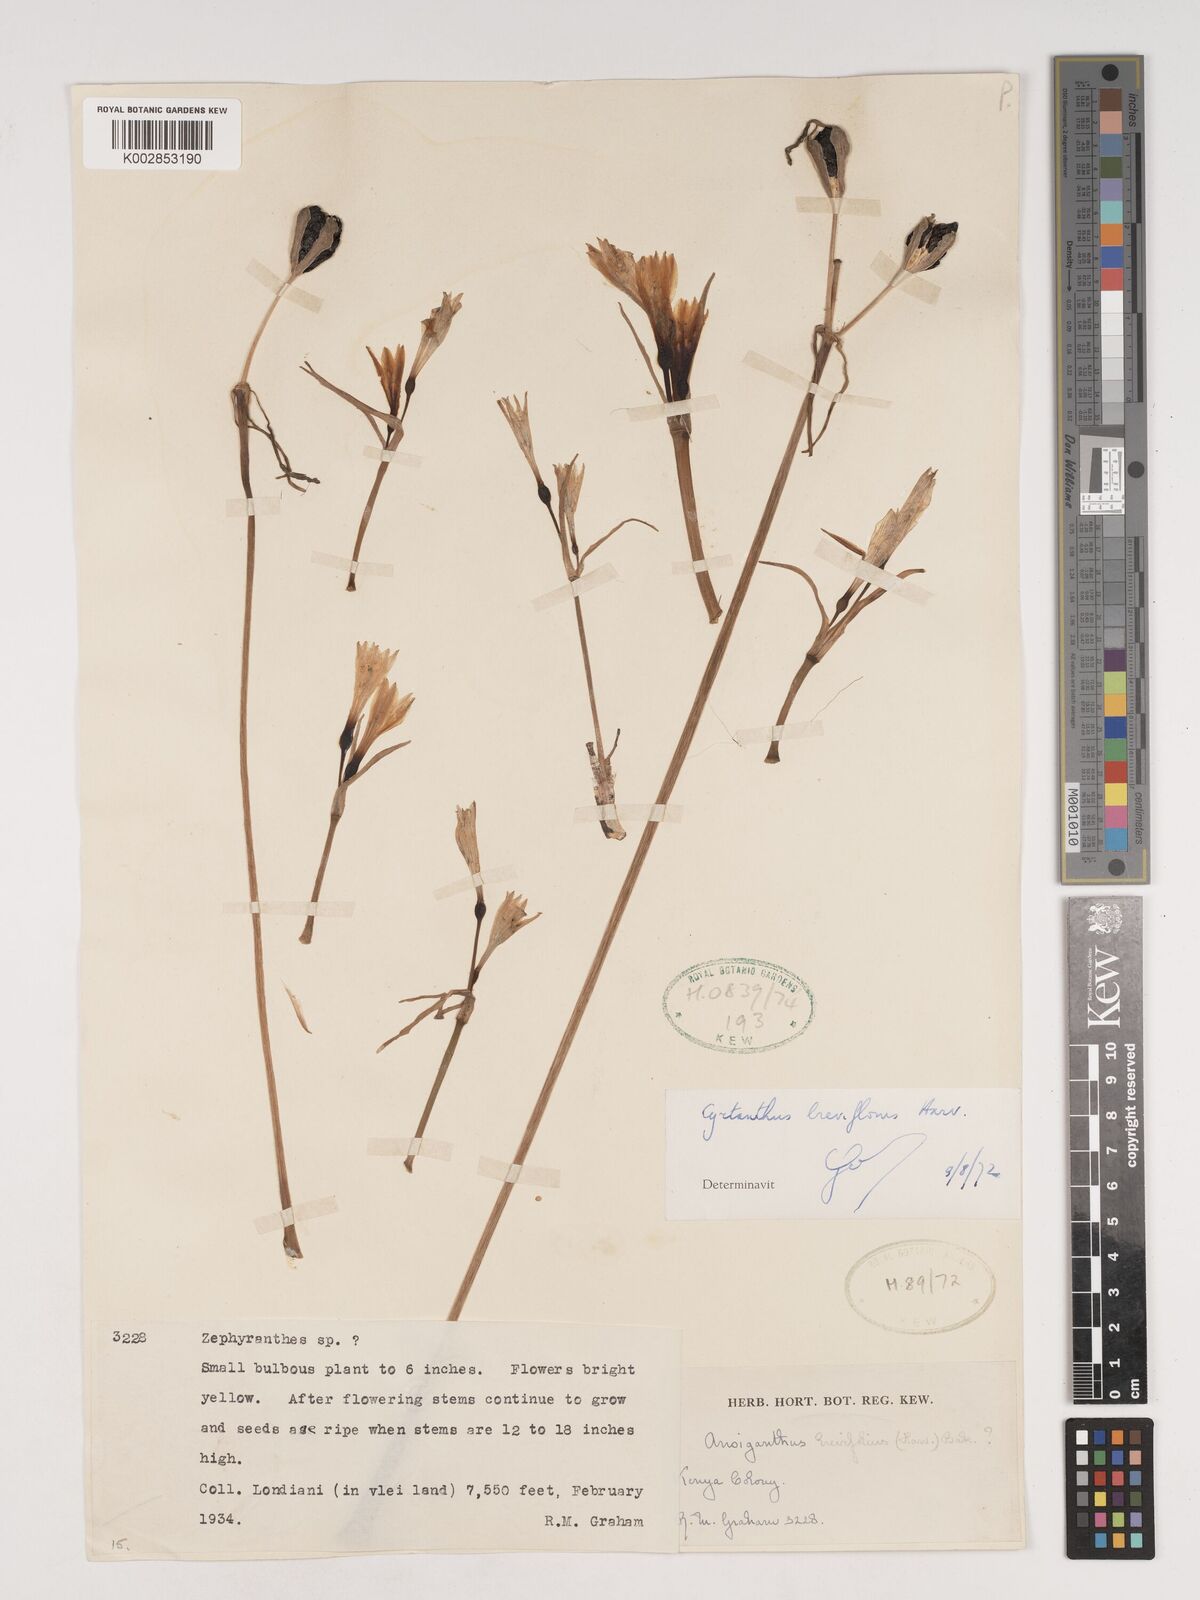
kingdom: Plantae
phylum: Tracheophyta
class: Liliopsida
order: Asparagales
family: Amaryllidaceae
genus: Cyrtanthus
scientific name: Cyrtanthus breviflorus
